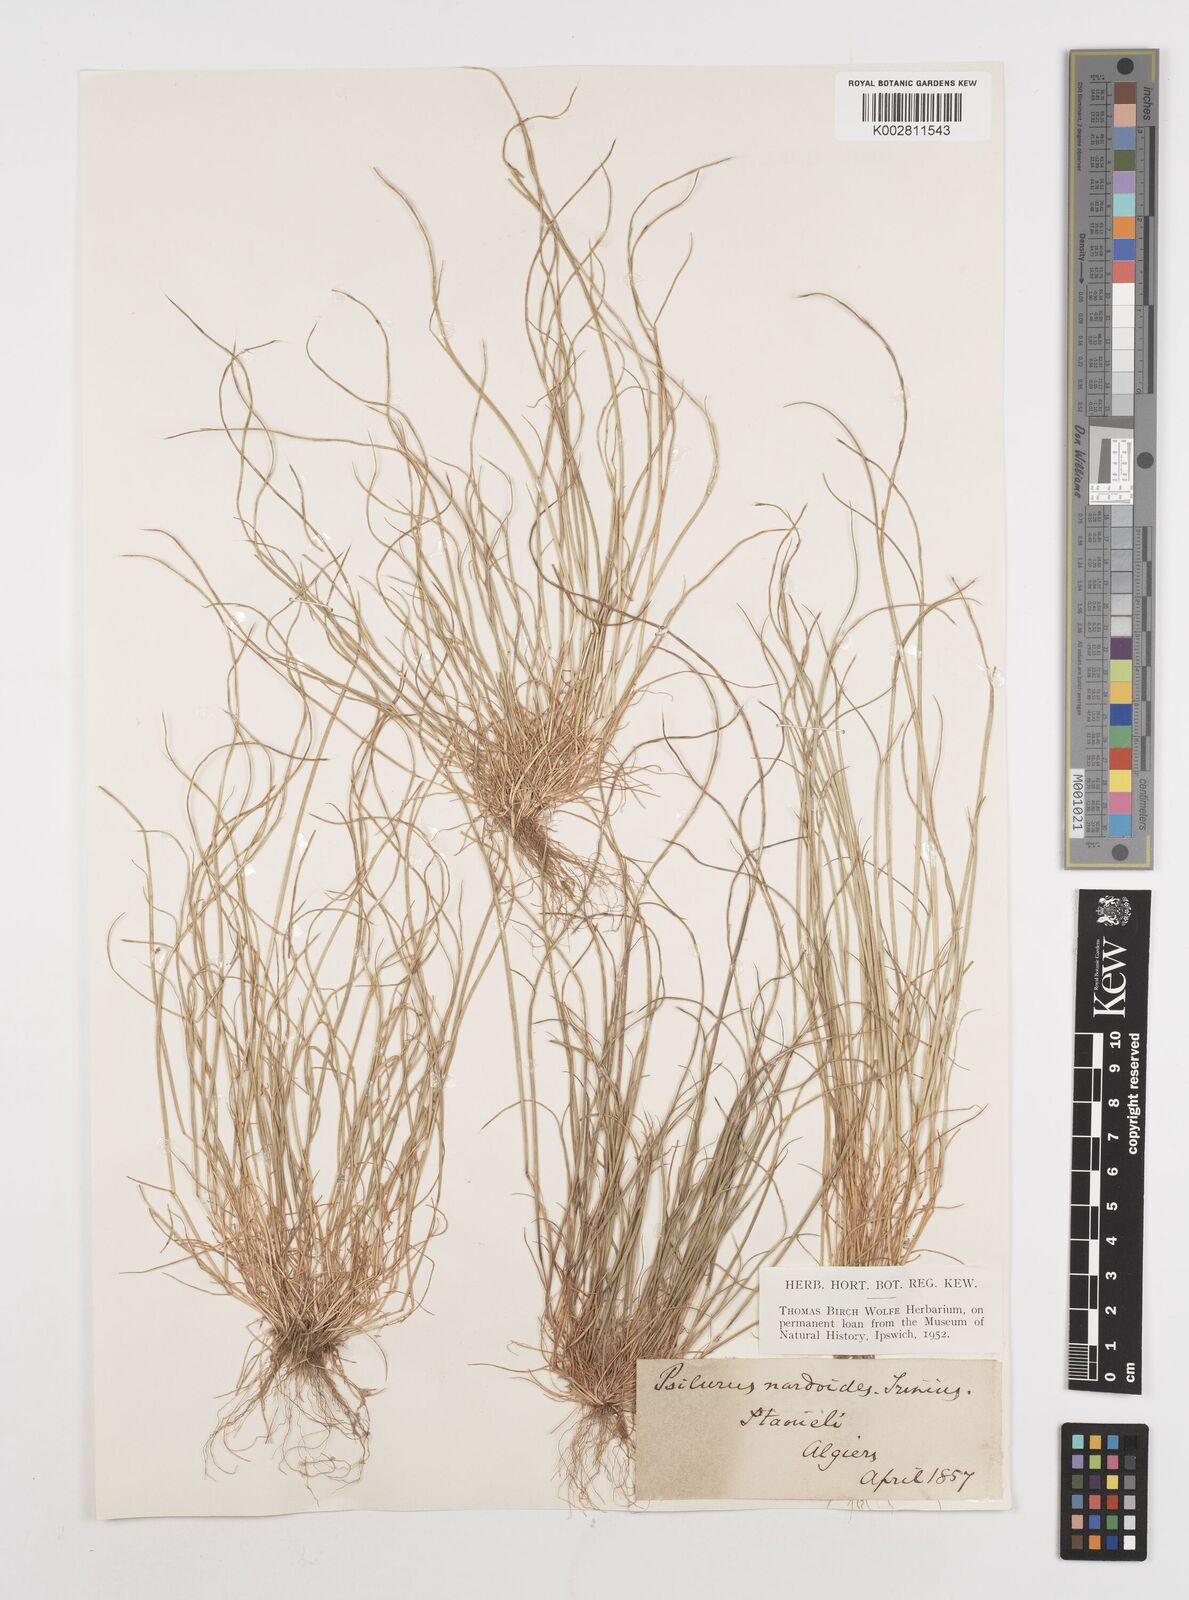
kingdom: Plantae
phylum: Tracheophyta
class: Liliopsida
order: Poales
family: Poaceae
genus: Festuca
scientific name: Festuca
